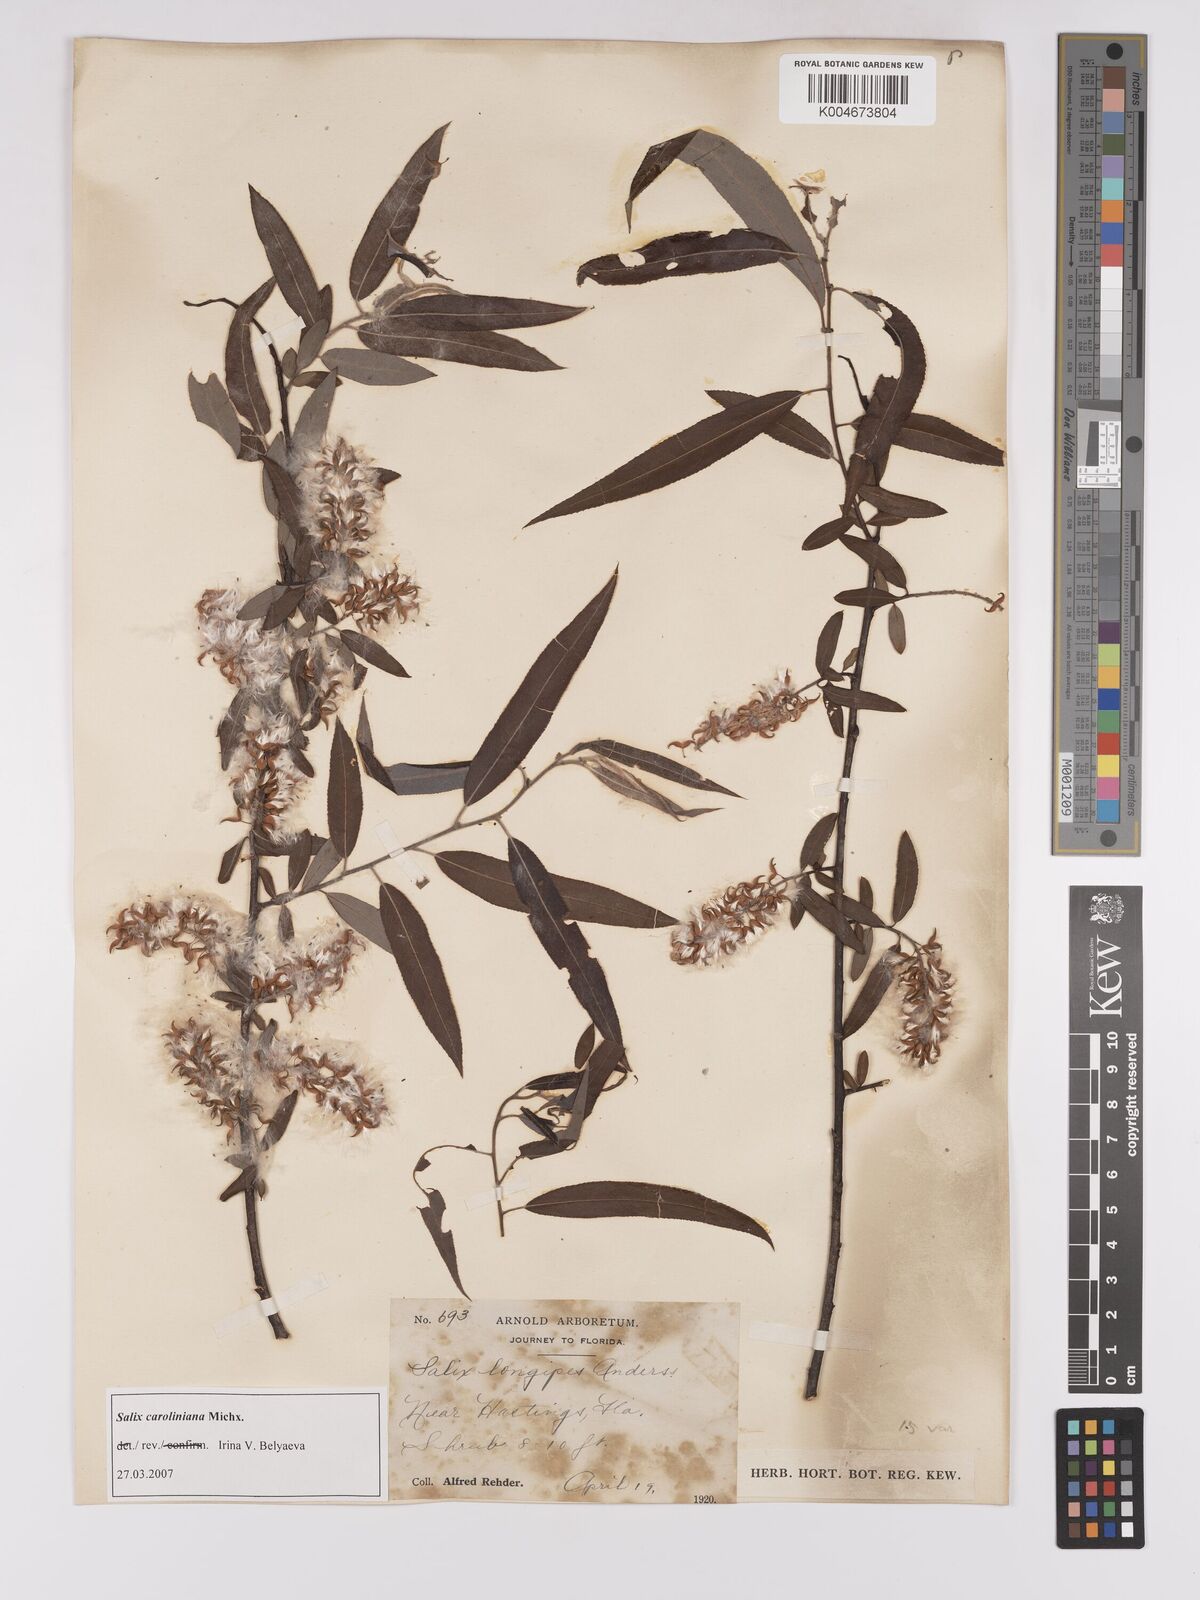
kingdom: Plantae
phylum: Tracheophyta
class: Magnoliopsida
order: Malpighiales
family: Salicaceae
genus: Salix
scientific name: Salix caroliniana
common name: Carolina willow
